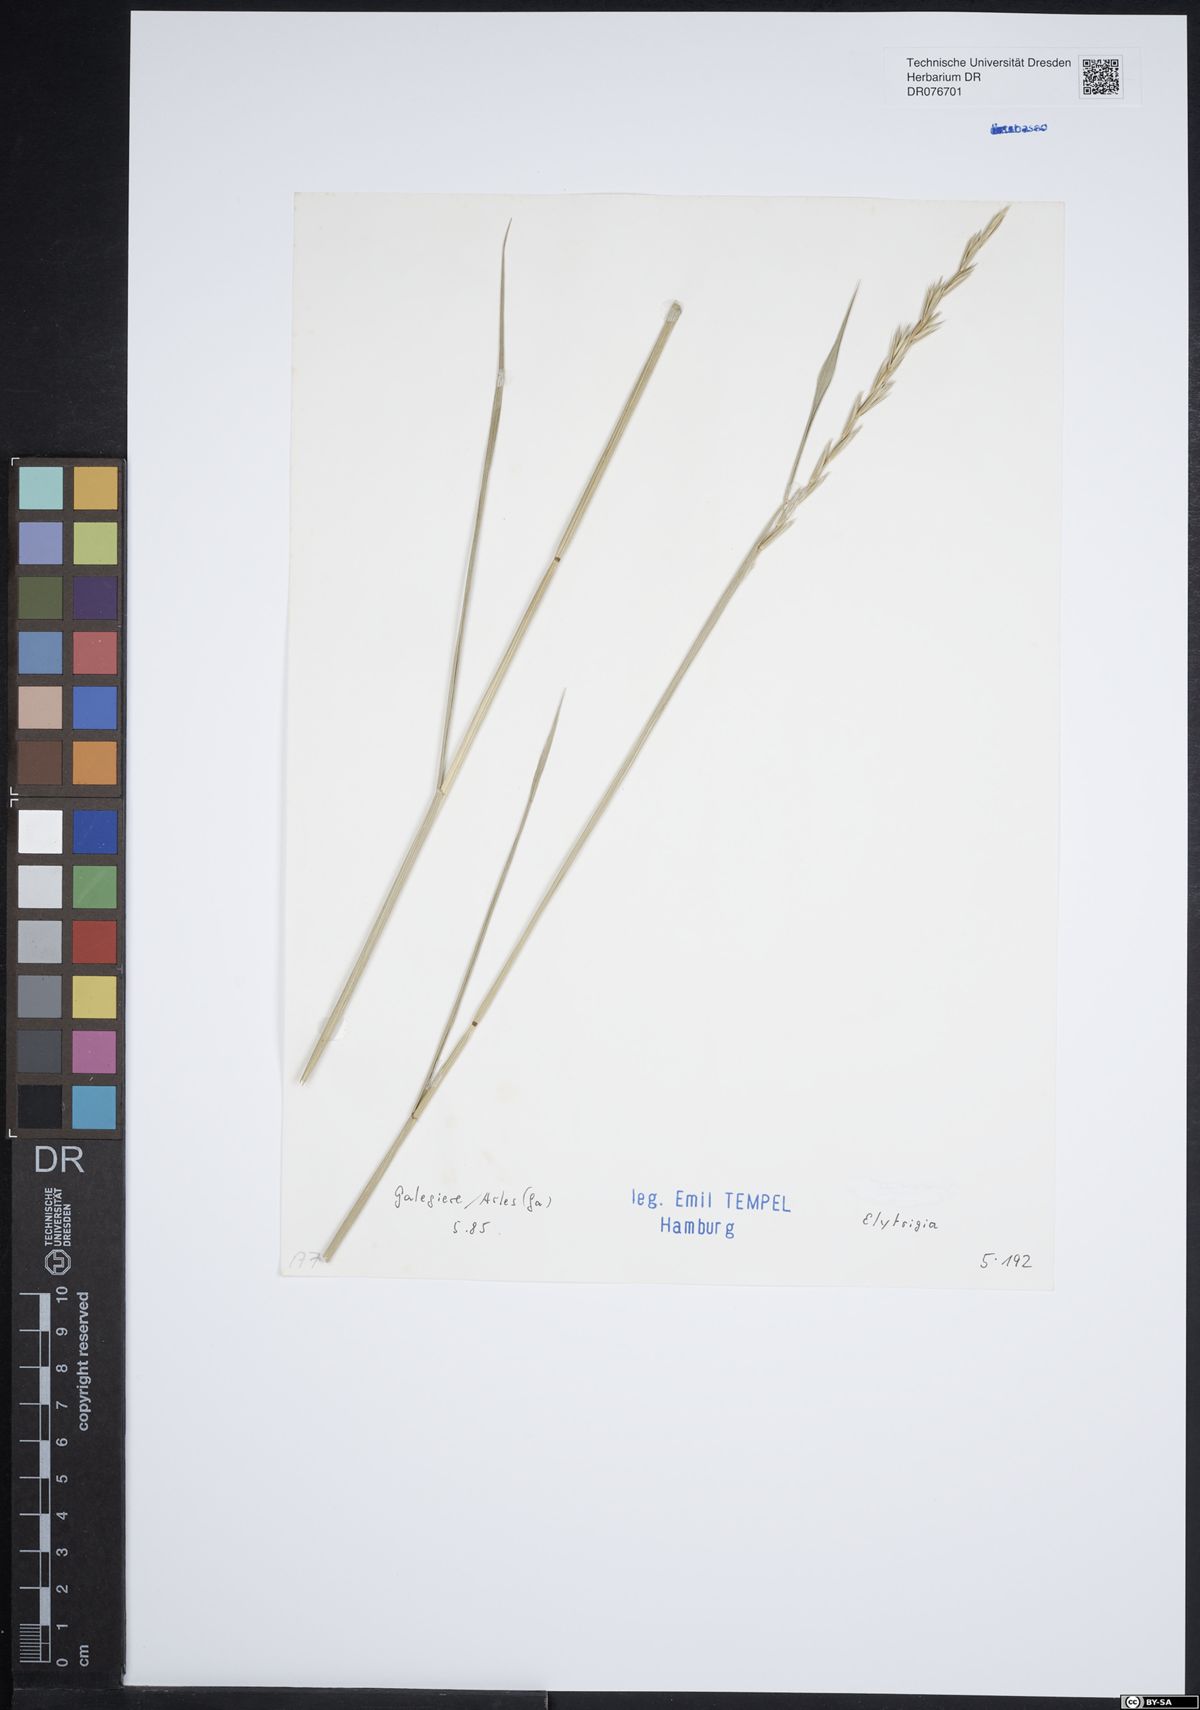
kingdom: Plantae
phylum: Tracheophyta
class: Liliopsida
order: Poales
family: Poaceae
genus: Elymus
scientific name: Elymus
